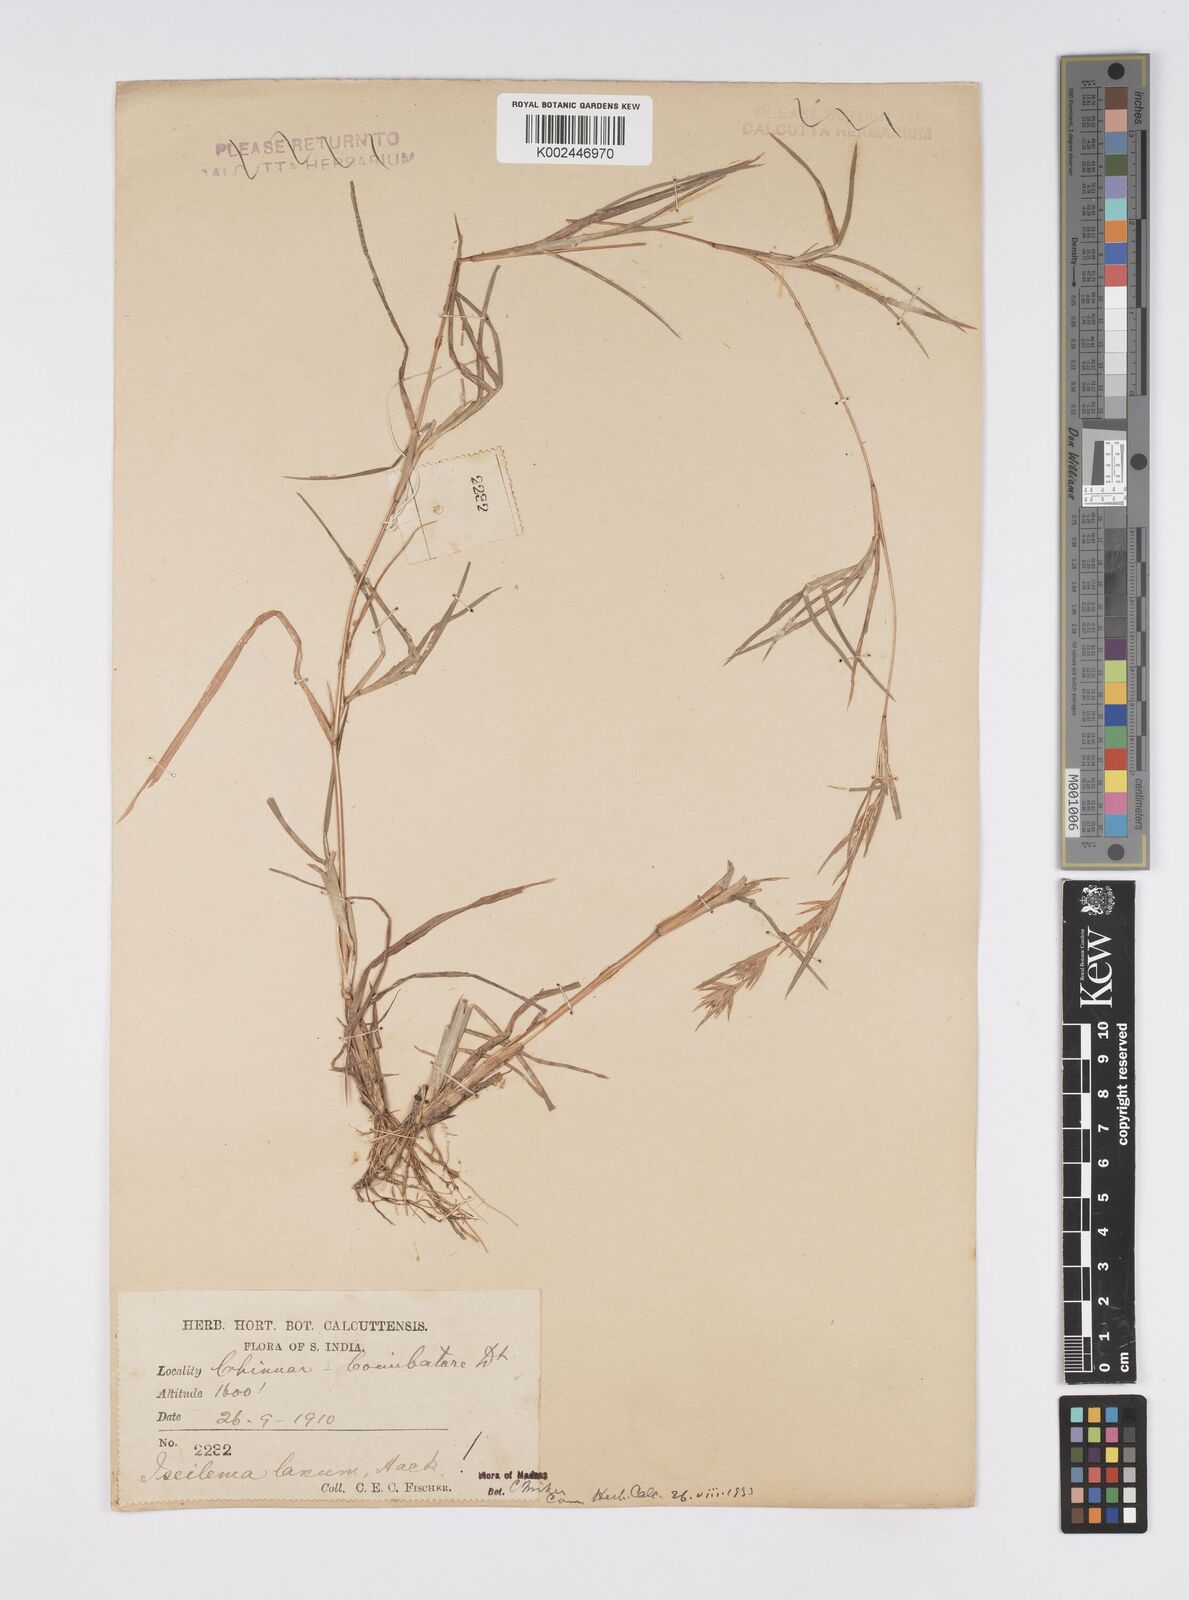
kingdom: Plantae
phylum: Tracheophyta
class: Liliopsida
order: Poales
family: Poaceae
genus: Iseilema
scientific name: Iseilema prostratum
